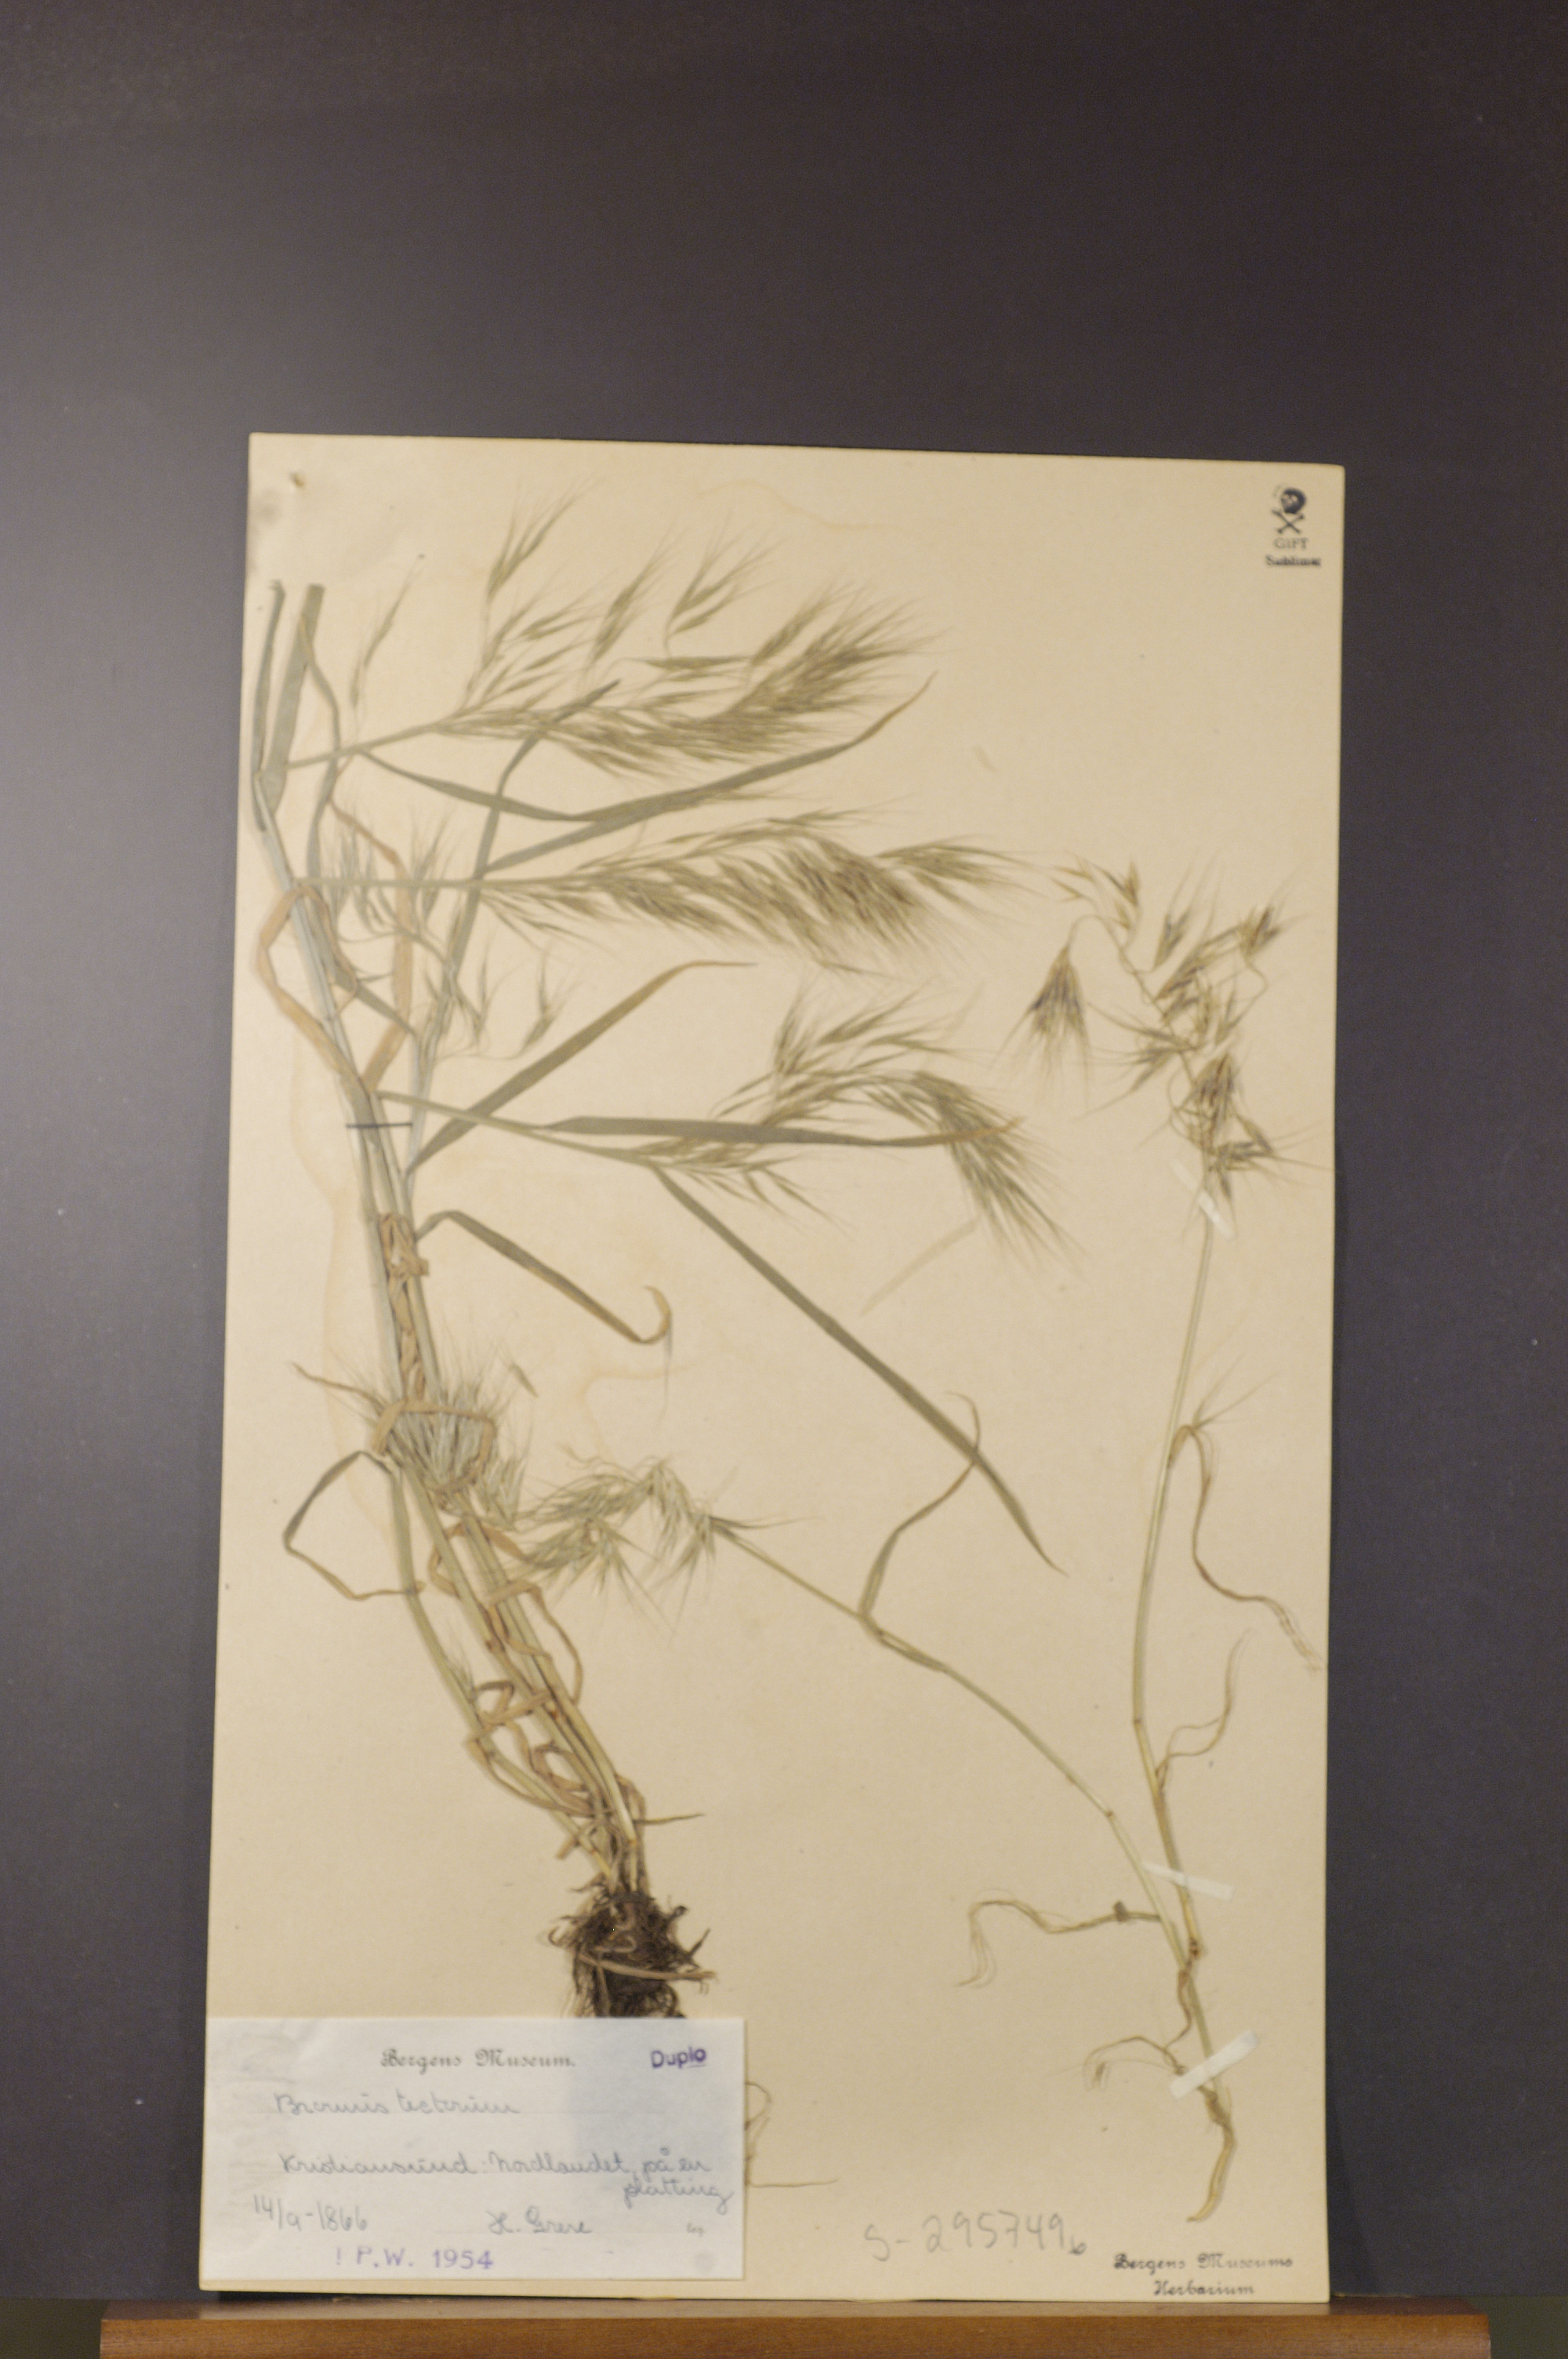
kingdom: Plantae
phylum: Tracheophyta
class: Liliopsida
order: Poales
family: Poaceae
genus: Bromus
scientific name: Bromus tectorum
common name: Cheatgrass
